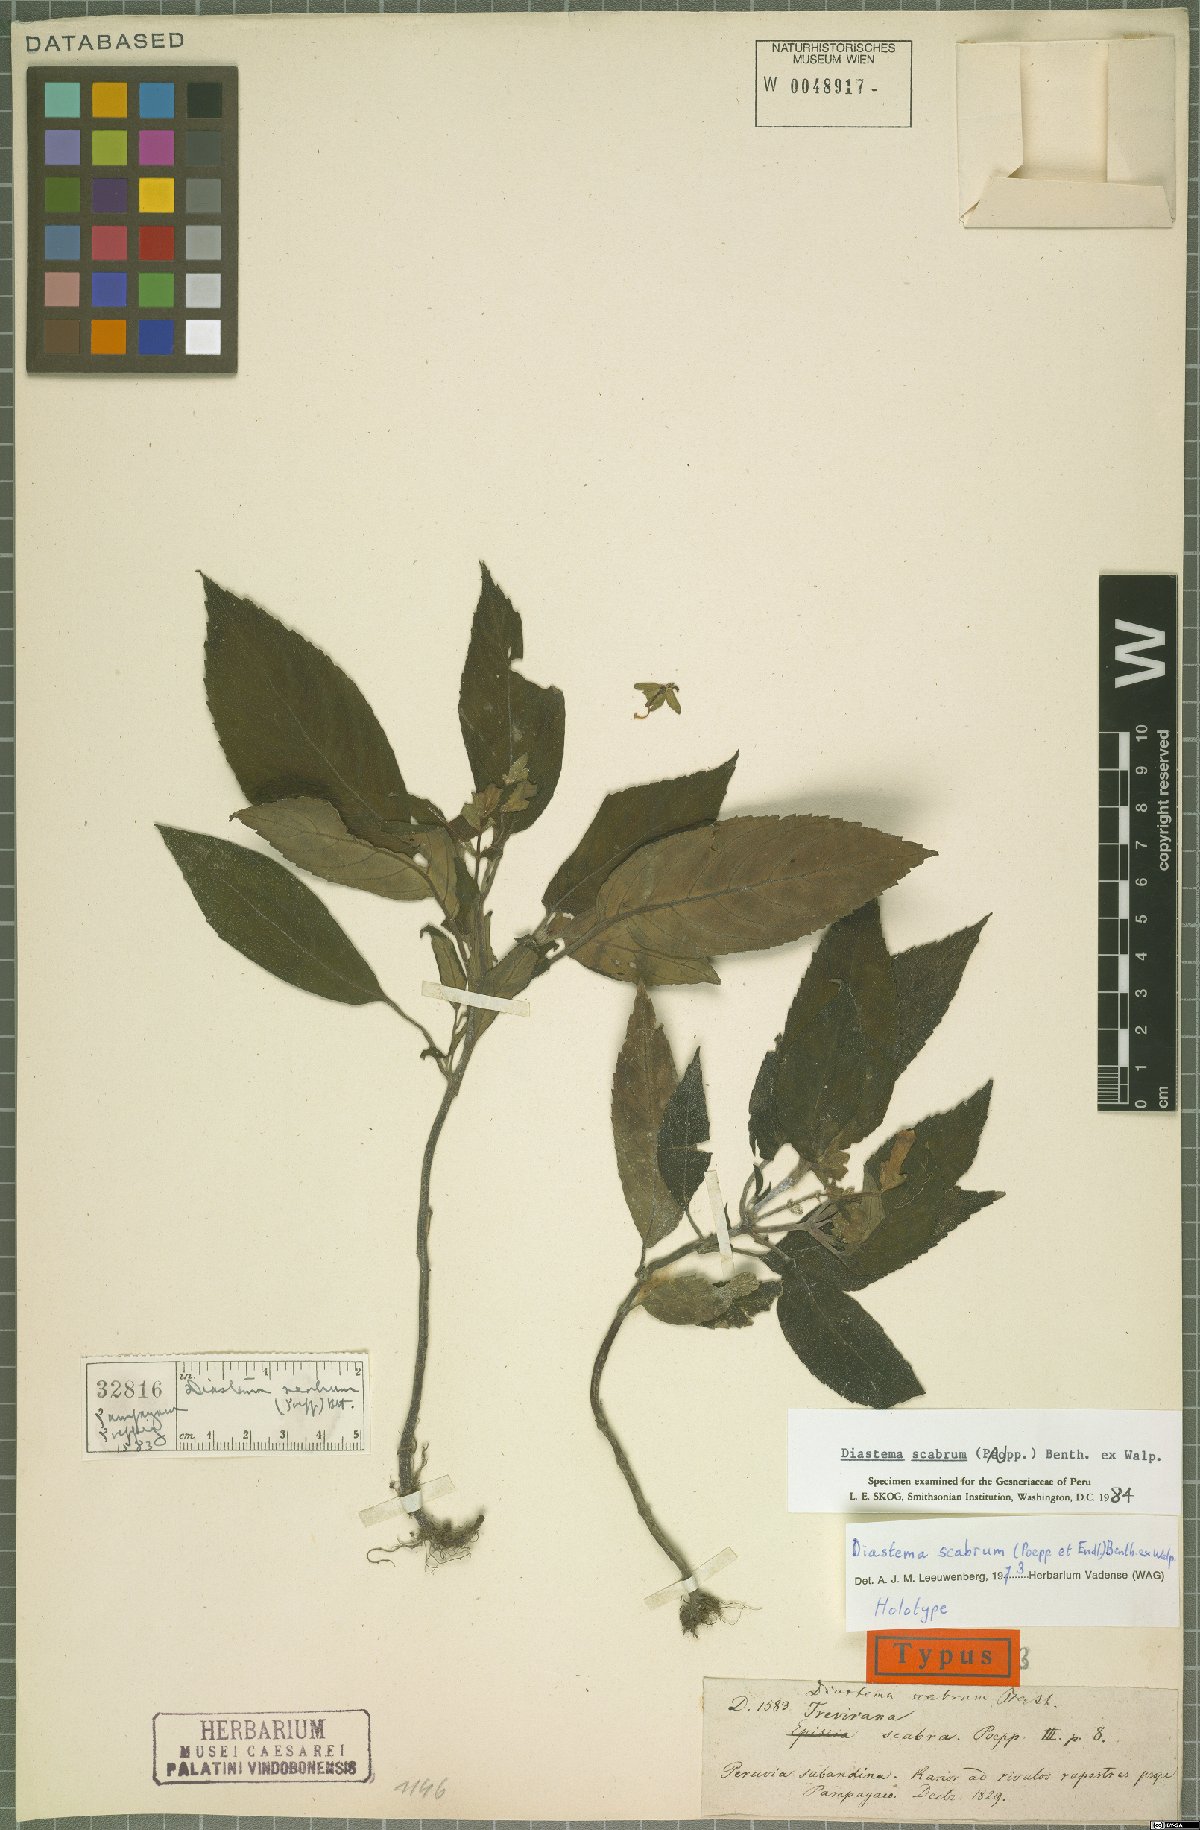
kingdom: Plantae
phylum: Tracheophyta
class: Magnoliopsida
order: Lamiales
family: Gesneriaceae
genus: Diastema
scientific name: Diastema scabrum
